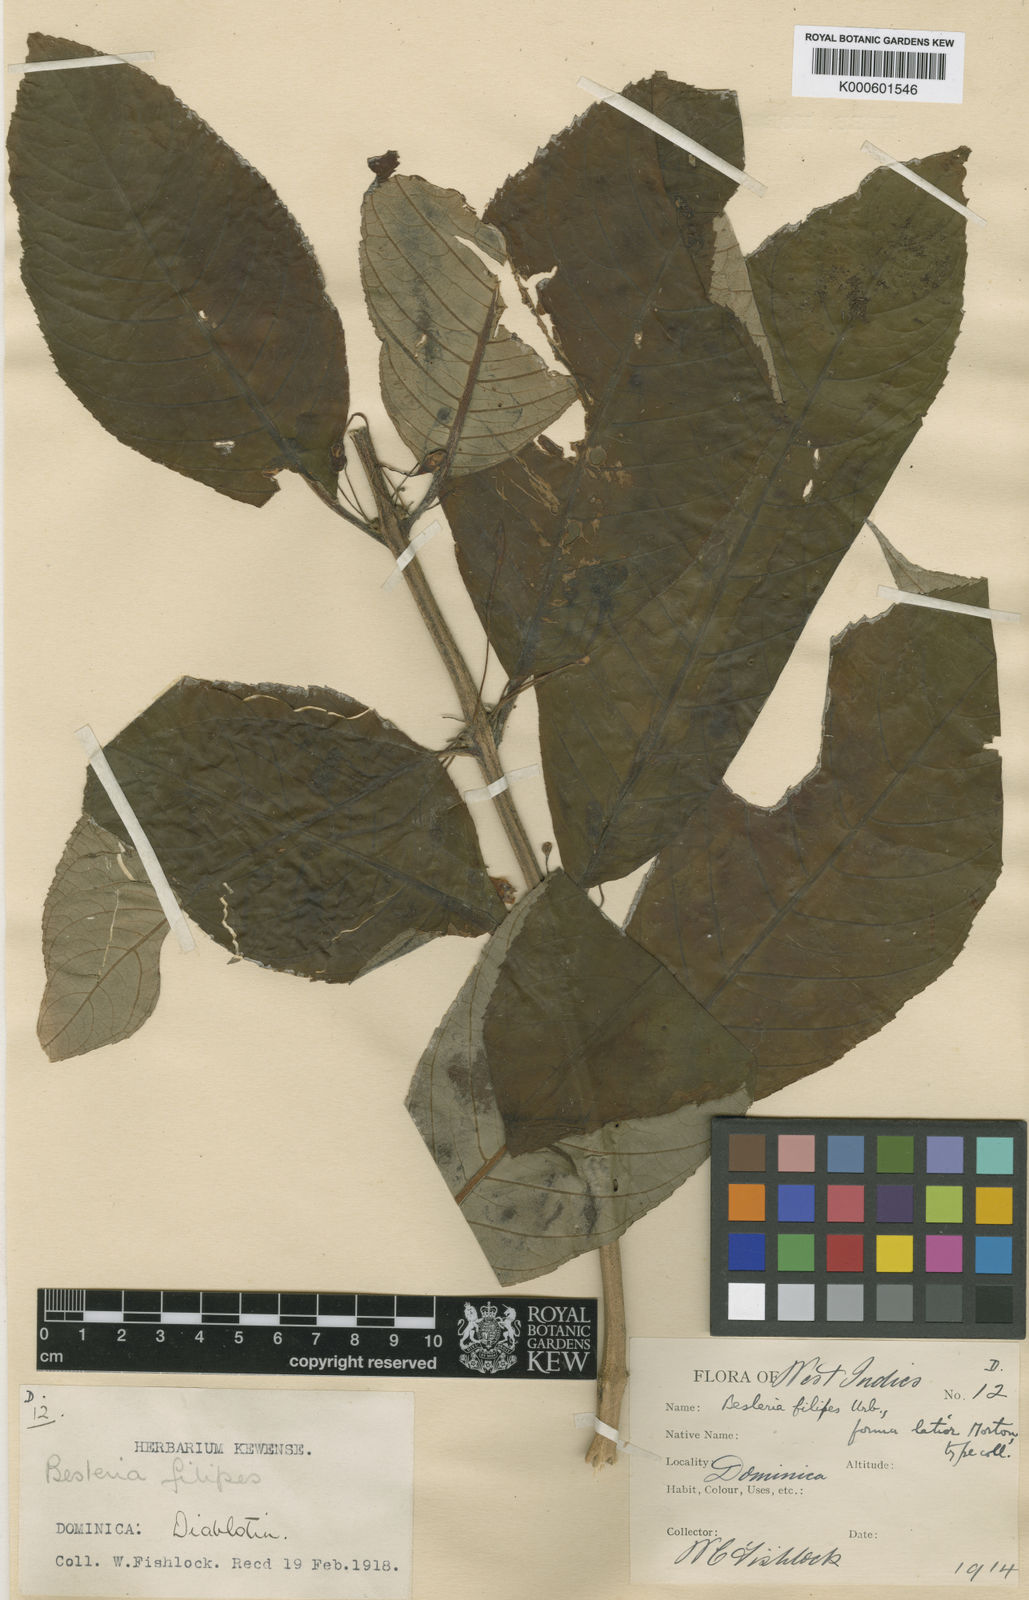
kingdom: Plantae
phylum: Tracheophyta
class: Magnoliopsida
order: Lamiales
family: Gesneriaceae
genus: Besleria
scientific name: Besleria filipes
